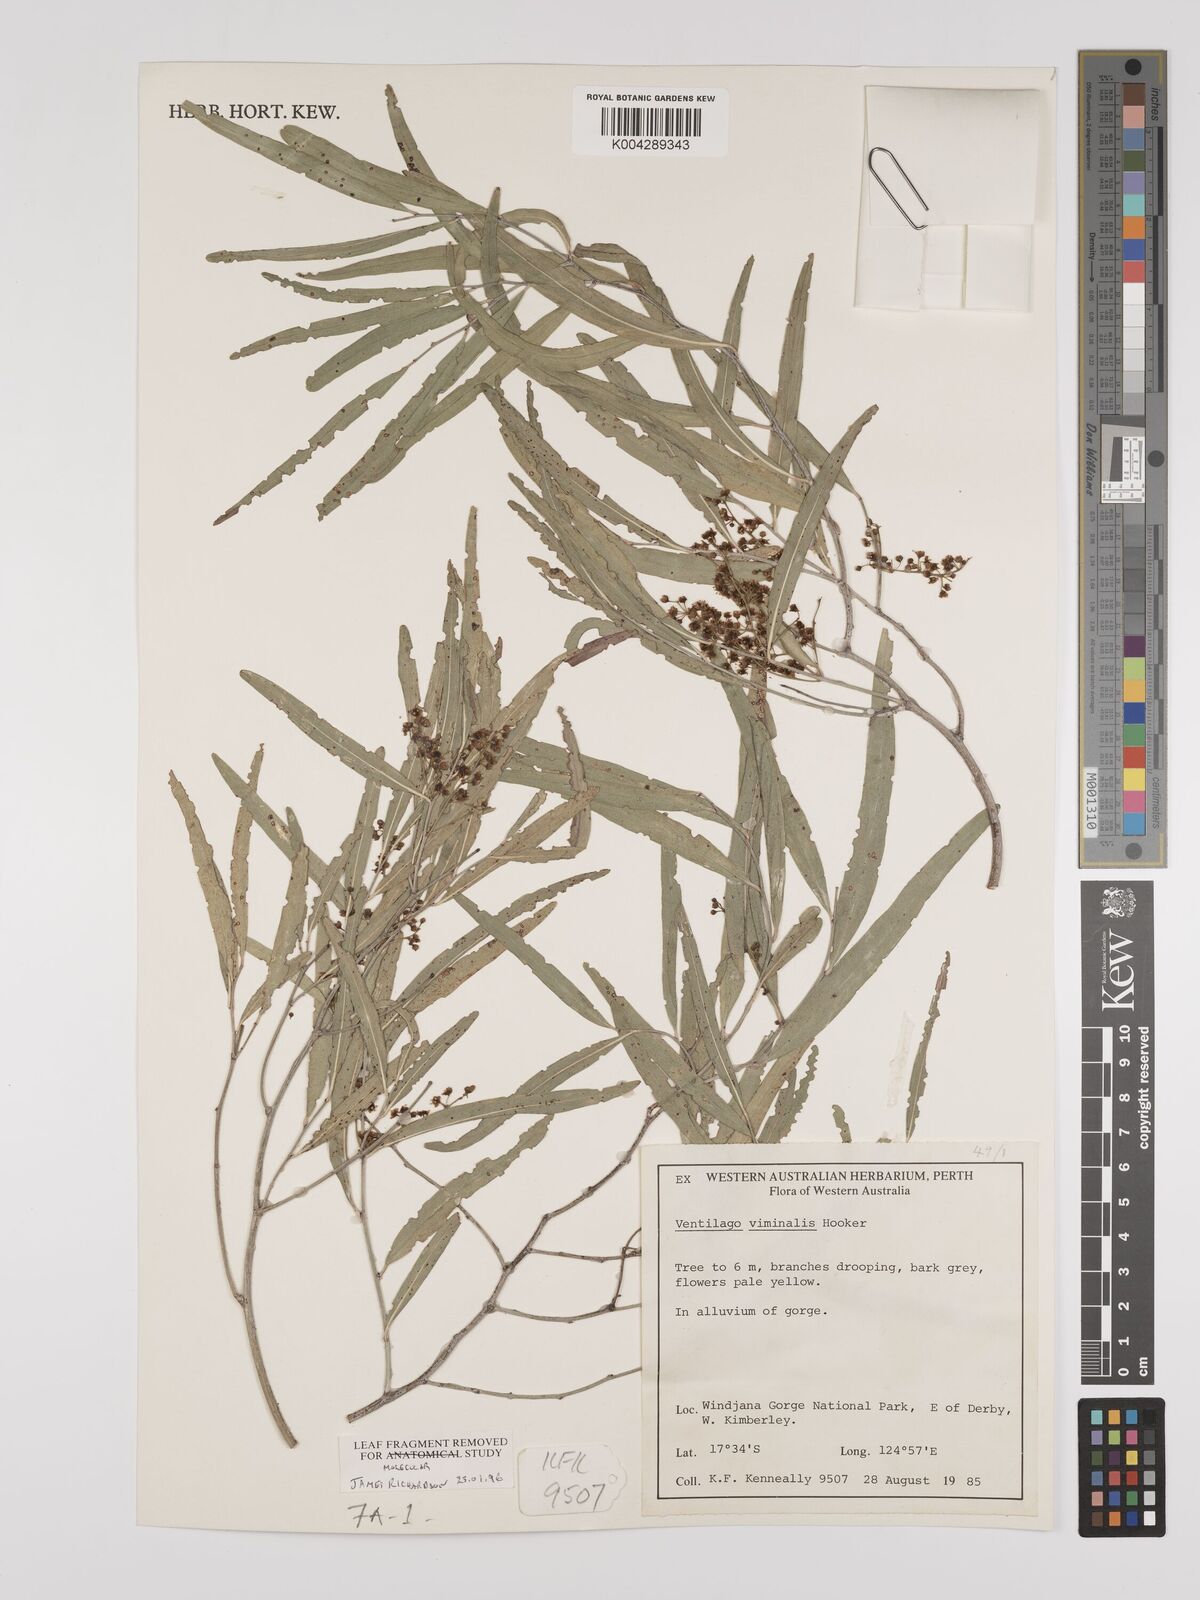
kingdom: Plantae
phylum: Tracheophyta
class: Magnoliopsida
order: Rosales
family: Rhamnaceae
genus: Ventilago
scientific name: Ventilago viminalis
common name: Medicine-bark
